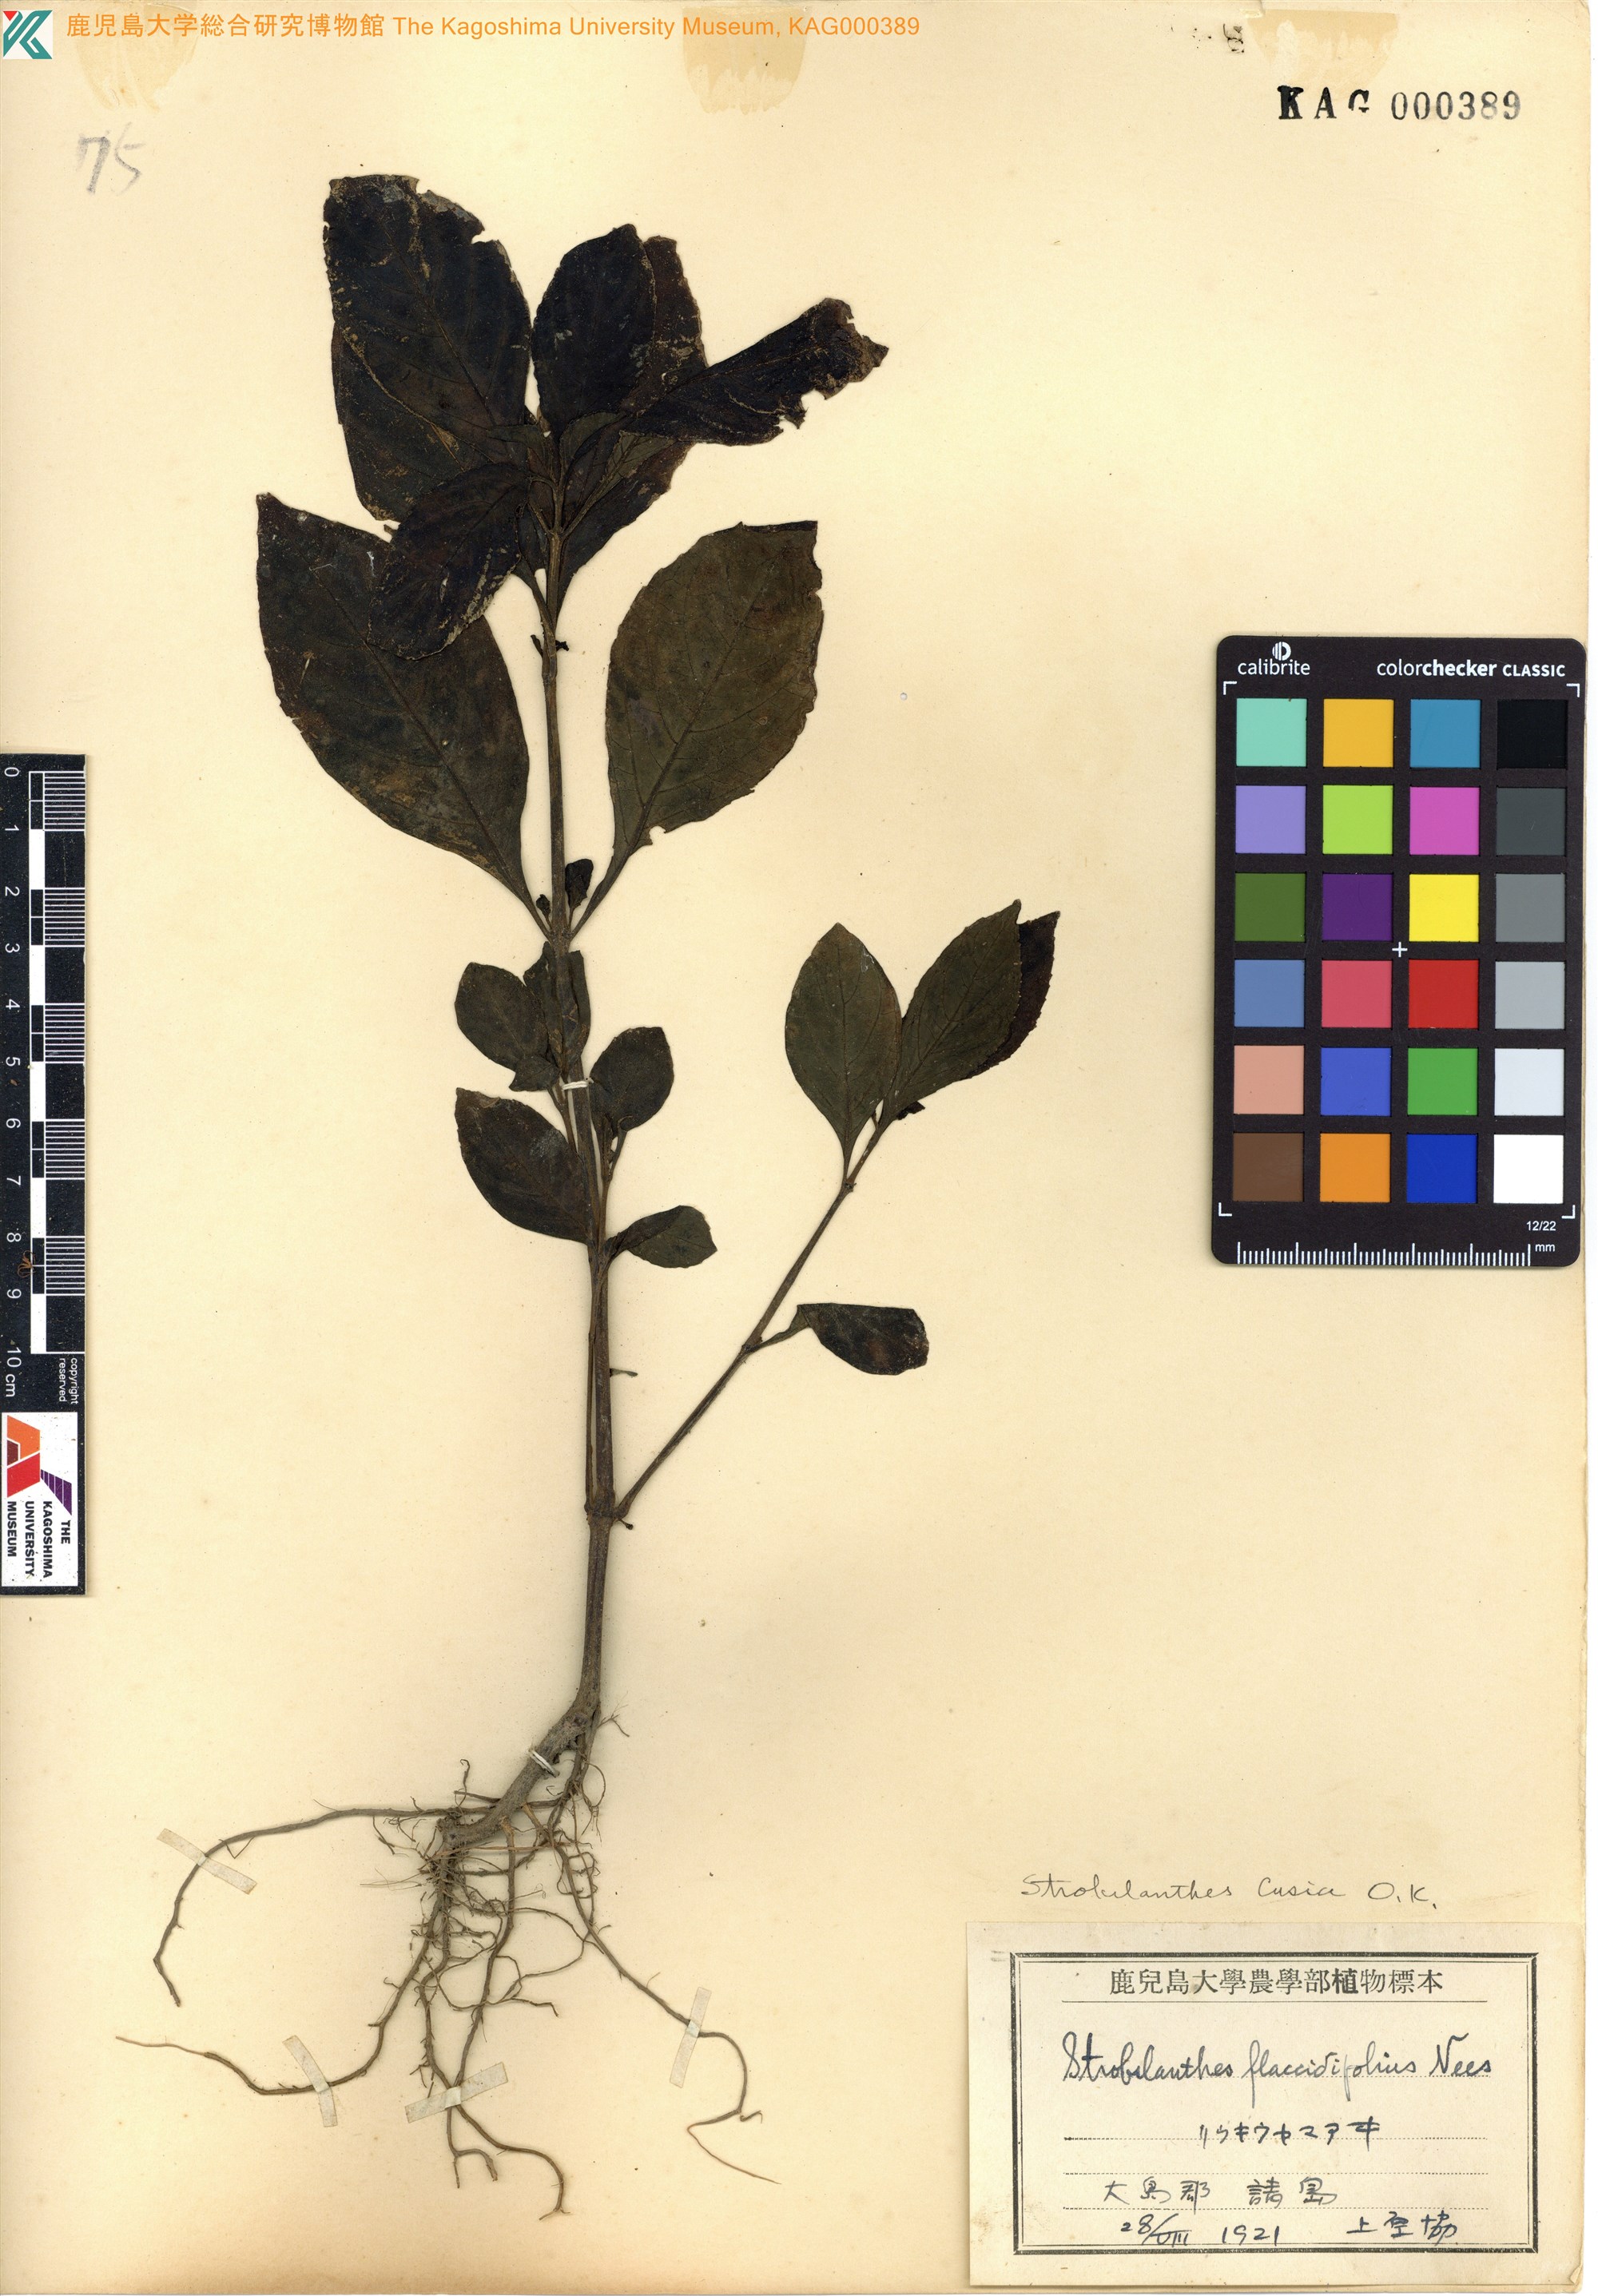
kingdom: Plantae
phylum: Tracheophyta
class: Magnoliopsida
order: Lamiales
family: Acanthaceae
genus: Strobilanthes
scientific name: Strobilanthes cusia
